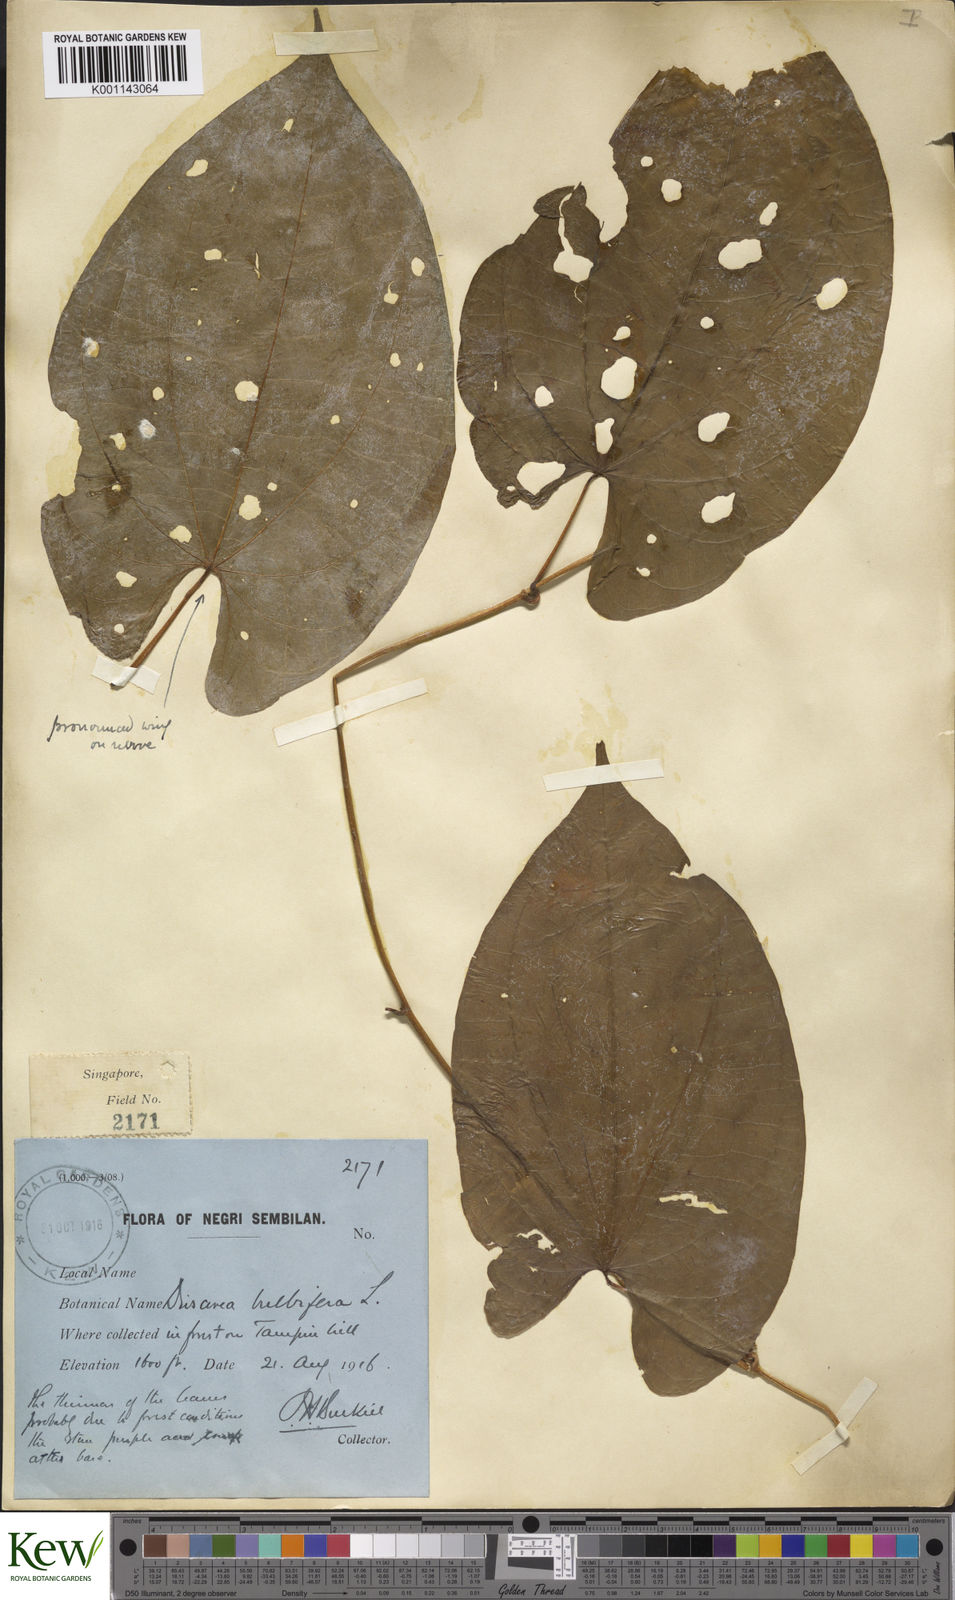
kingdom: Plantae
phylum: Tracheophyta
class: Liliopsida
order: Dioscoreales
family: Dioscoreaceae
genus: Dioscorea
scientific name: Dioscorea bulbifera
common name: Air yam
